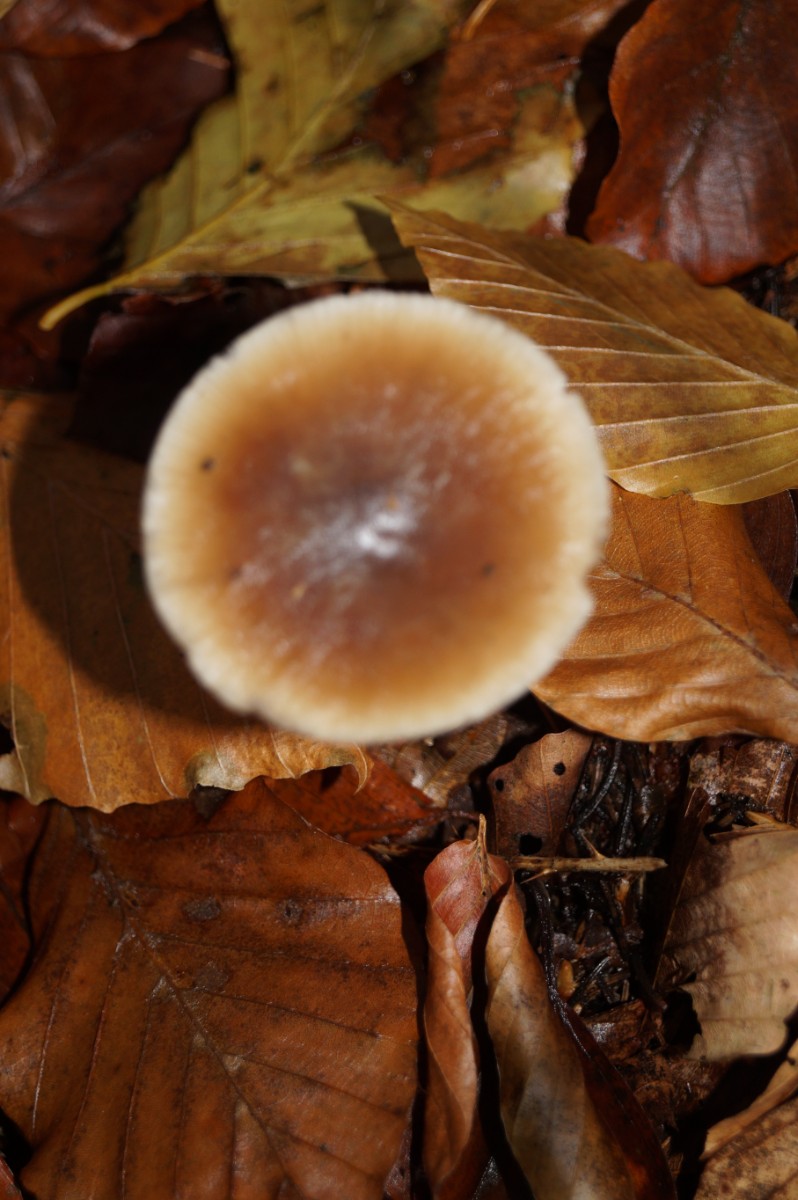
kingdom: Fungi
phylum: Basidiomycota
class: Agaricomycetes
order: Agaricales
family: Omphalotaceae
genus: Rhodocollybia
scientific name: Rhodocollybia asema
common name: horngrå fladhat
